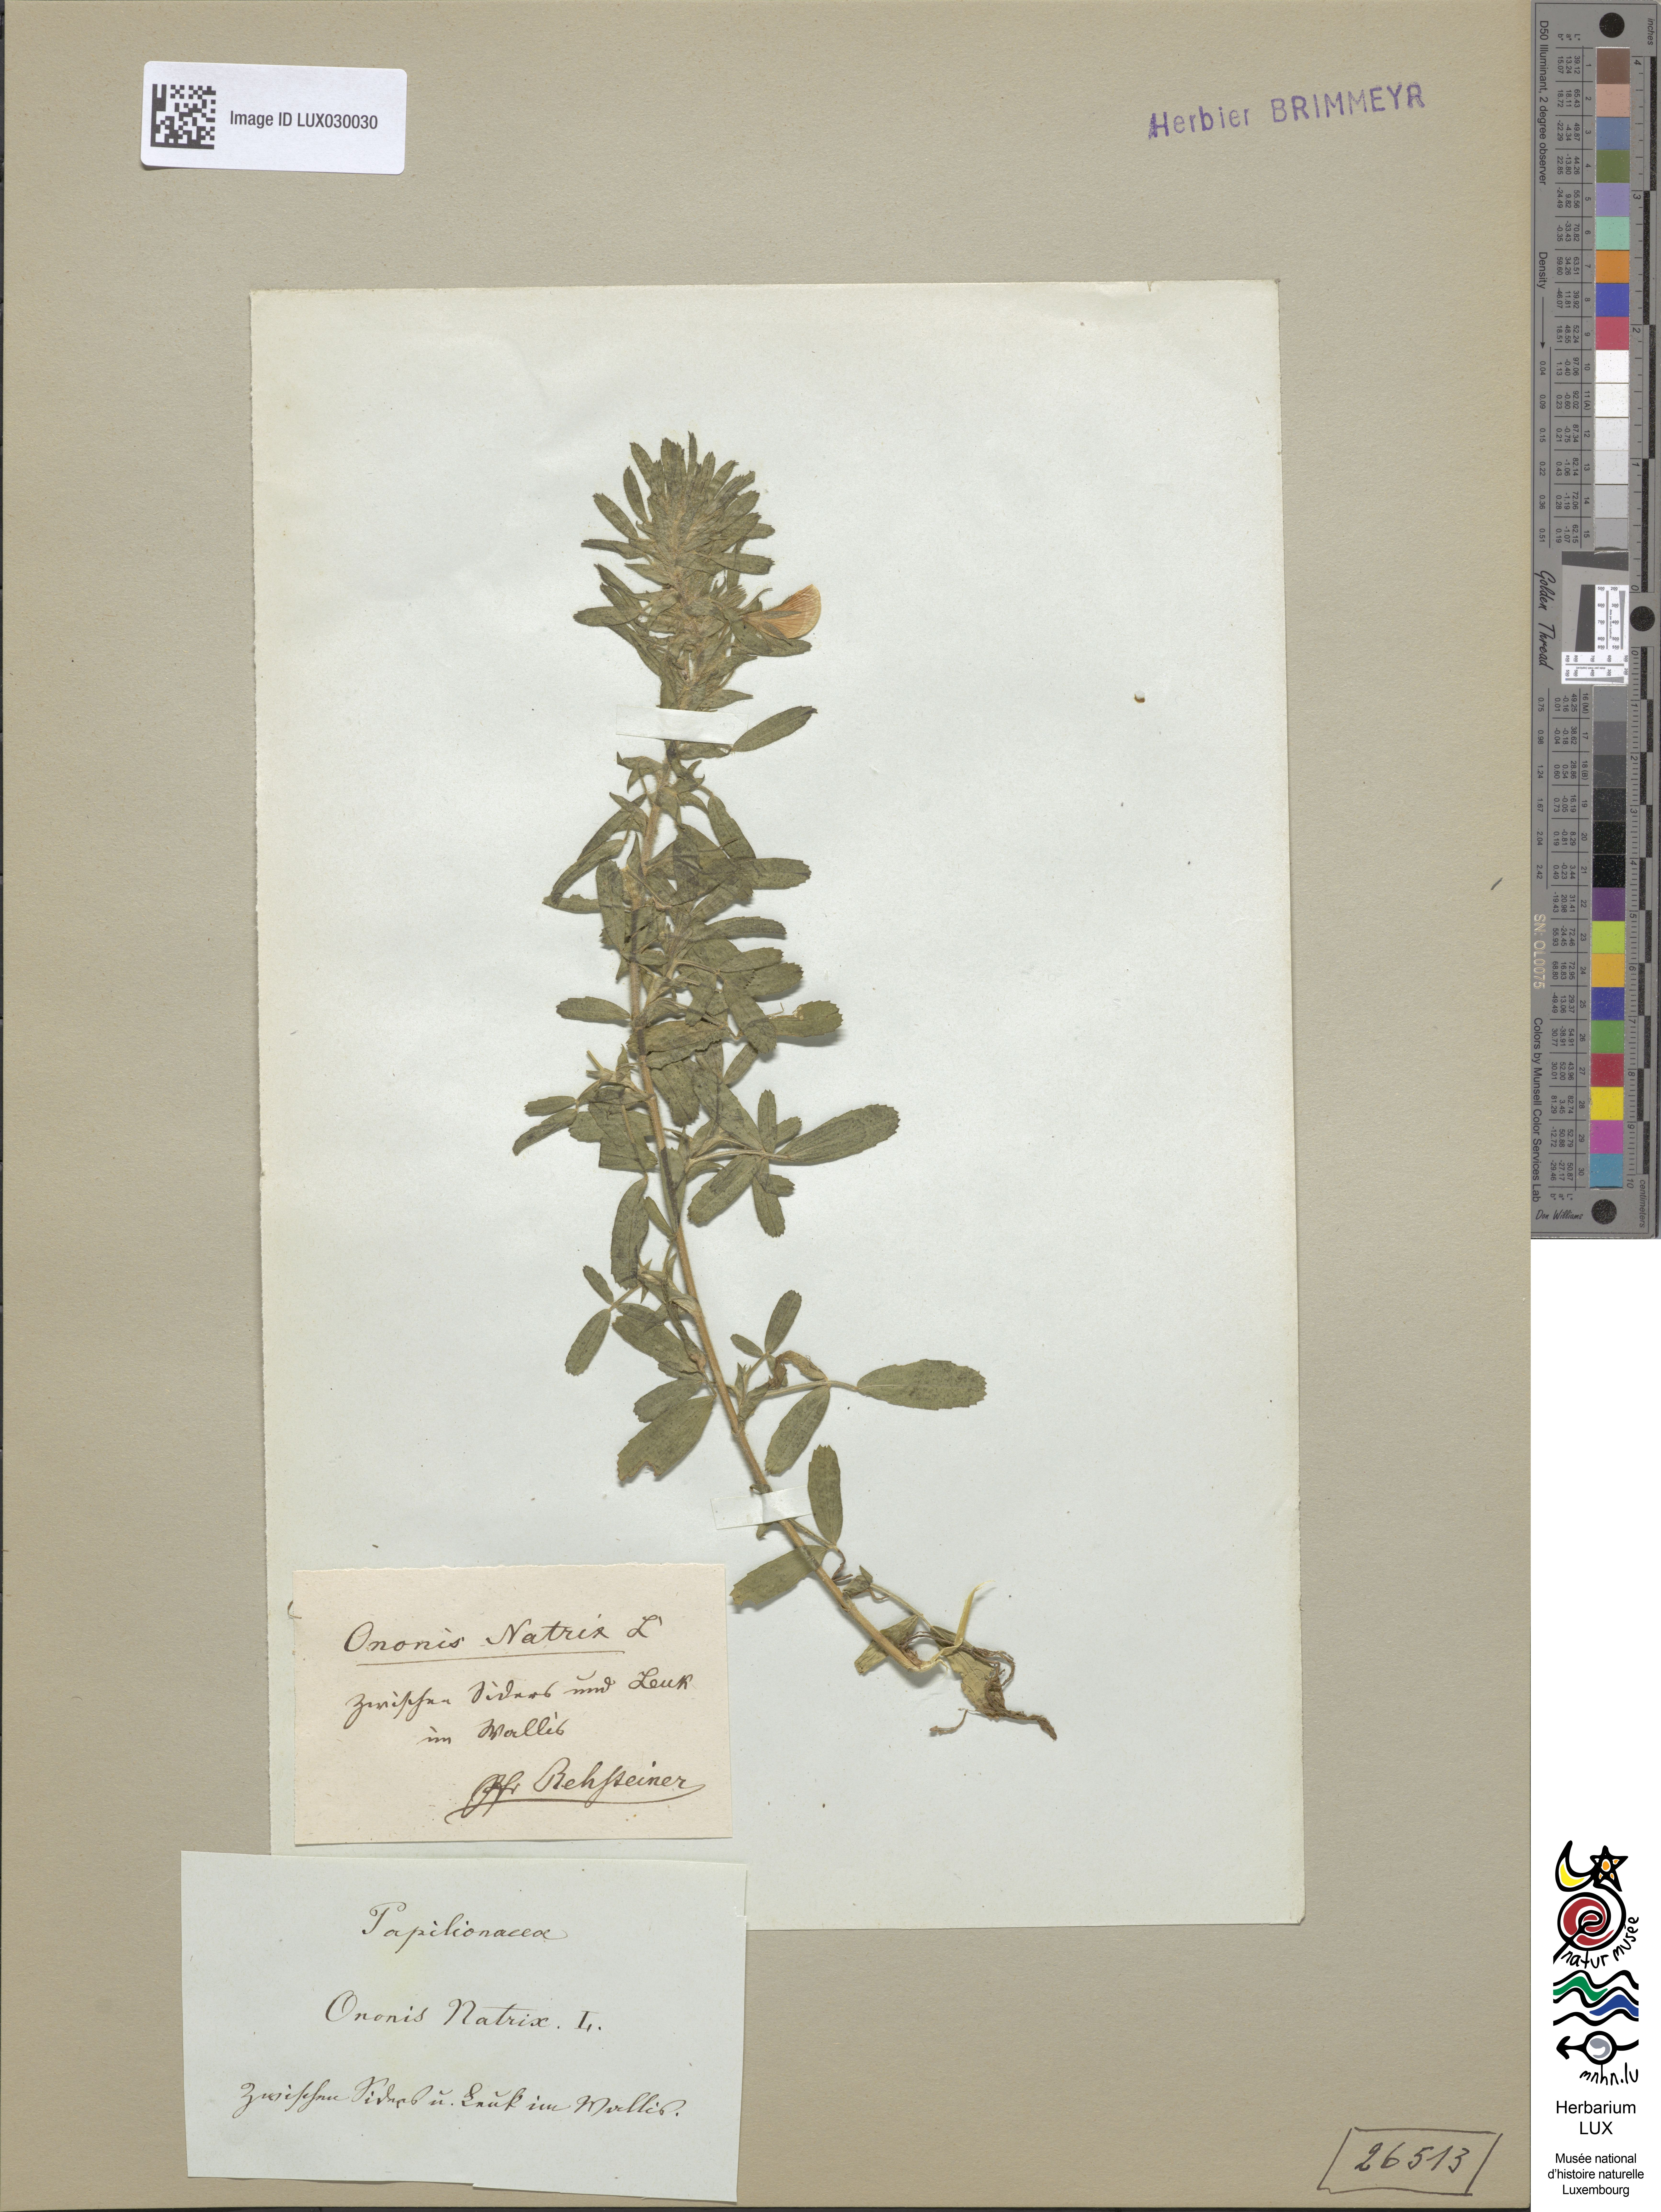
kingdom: Plantae
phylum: Tracheophyta
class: Magnoliopsida
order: Fabales
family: Fabaceae
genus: Ononis
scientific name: Ononis natrix
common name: Yellow restharrow
